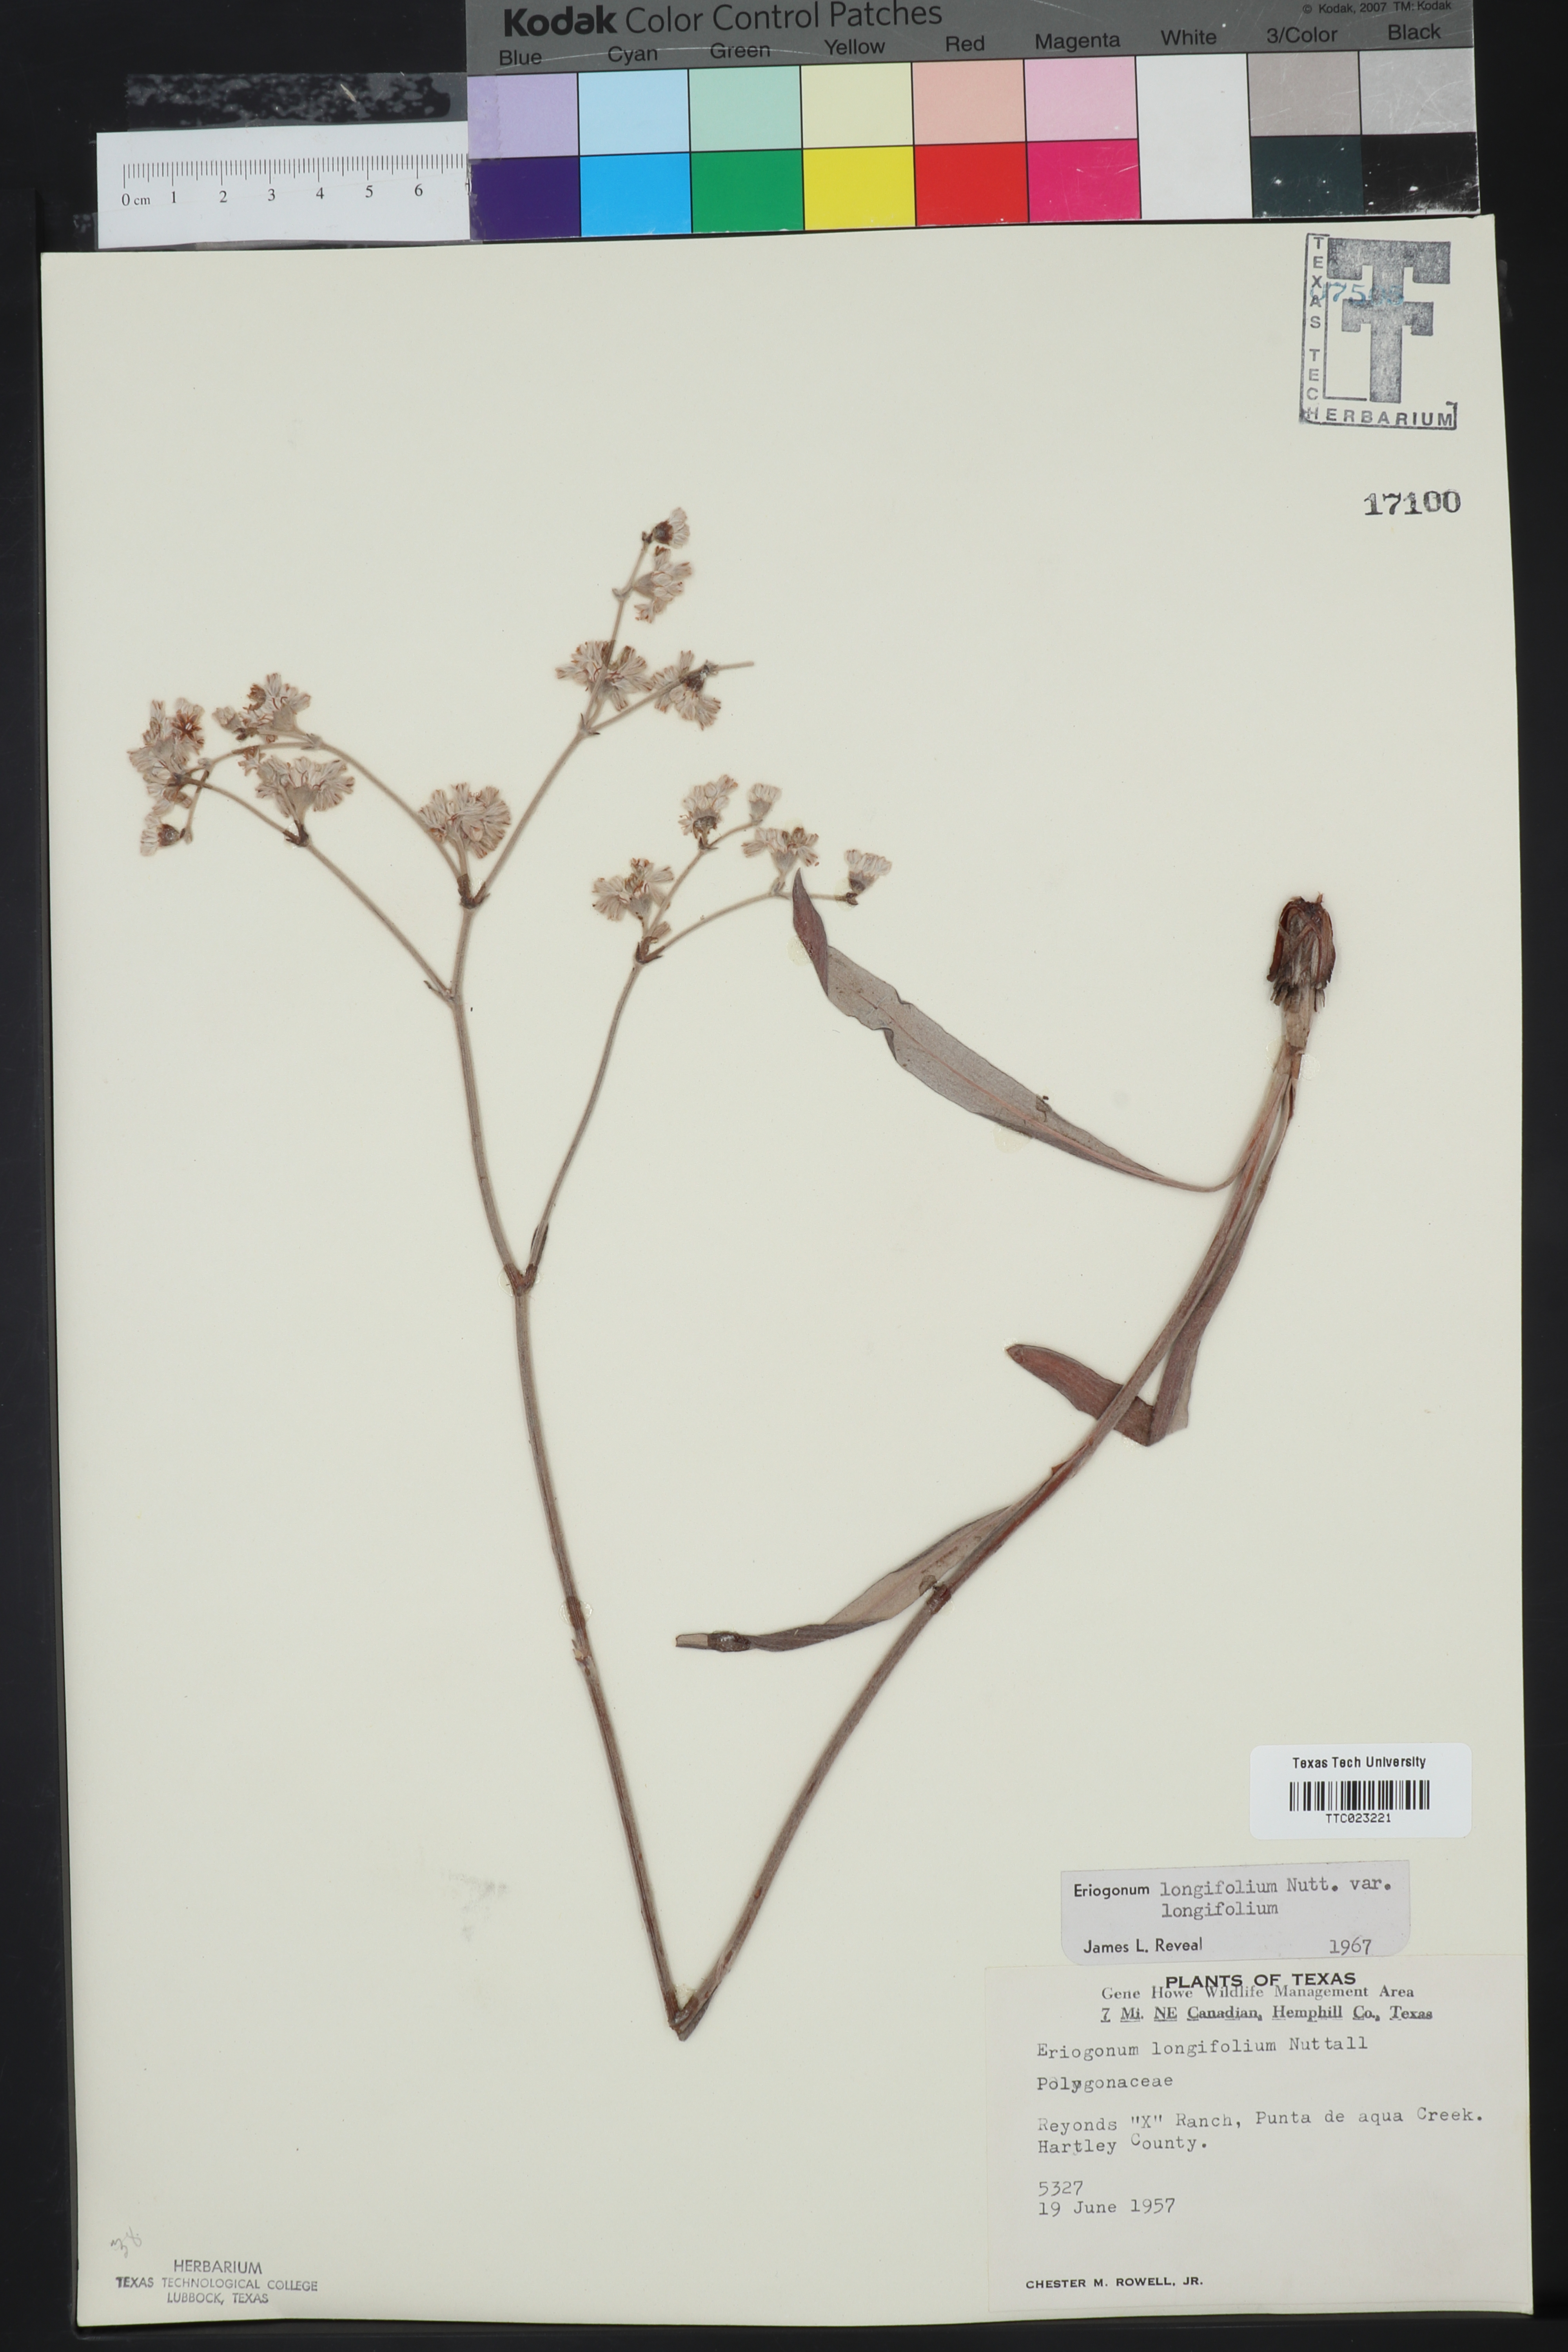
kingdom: Plantae
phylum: Tracheophyta
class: Magnoliopsida
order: Caryophyllales
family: Polygonaceae
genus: Eriogonum
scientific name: Eriogonum longifolium
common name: Longleaf wild buckwheat
